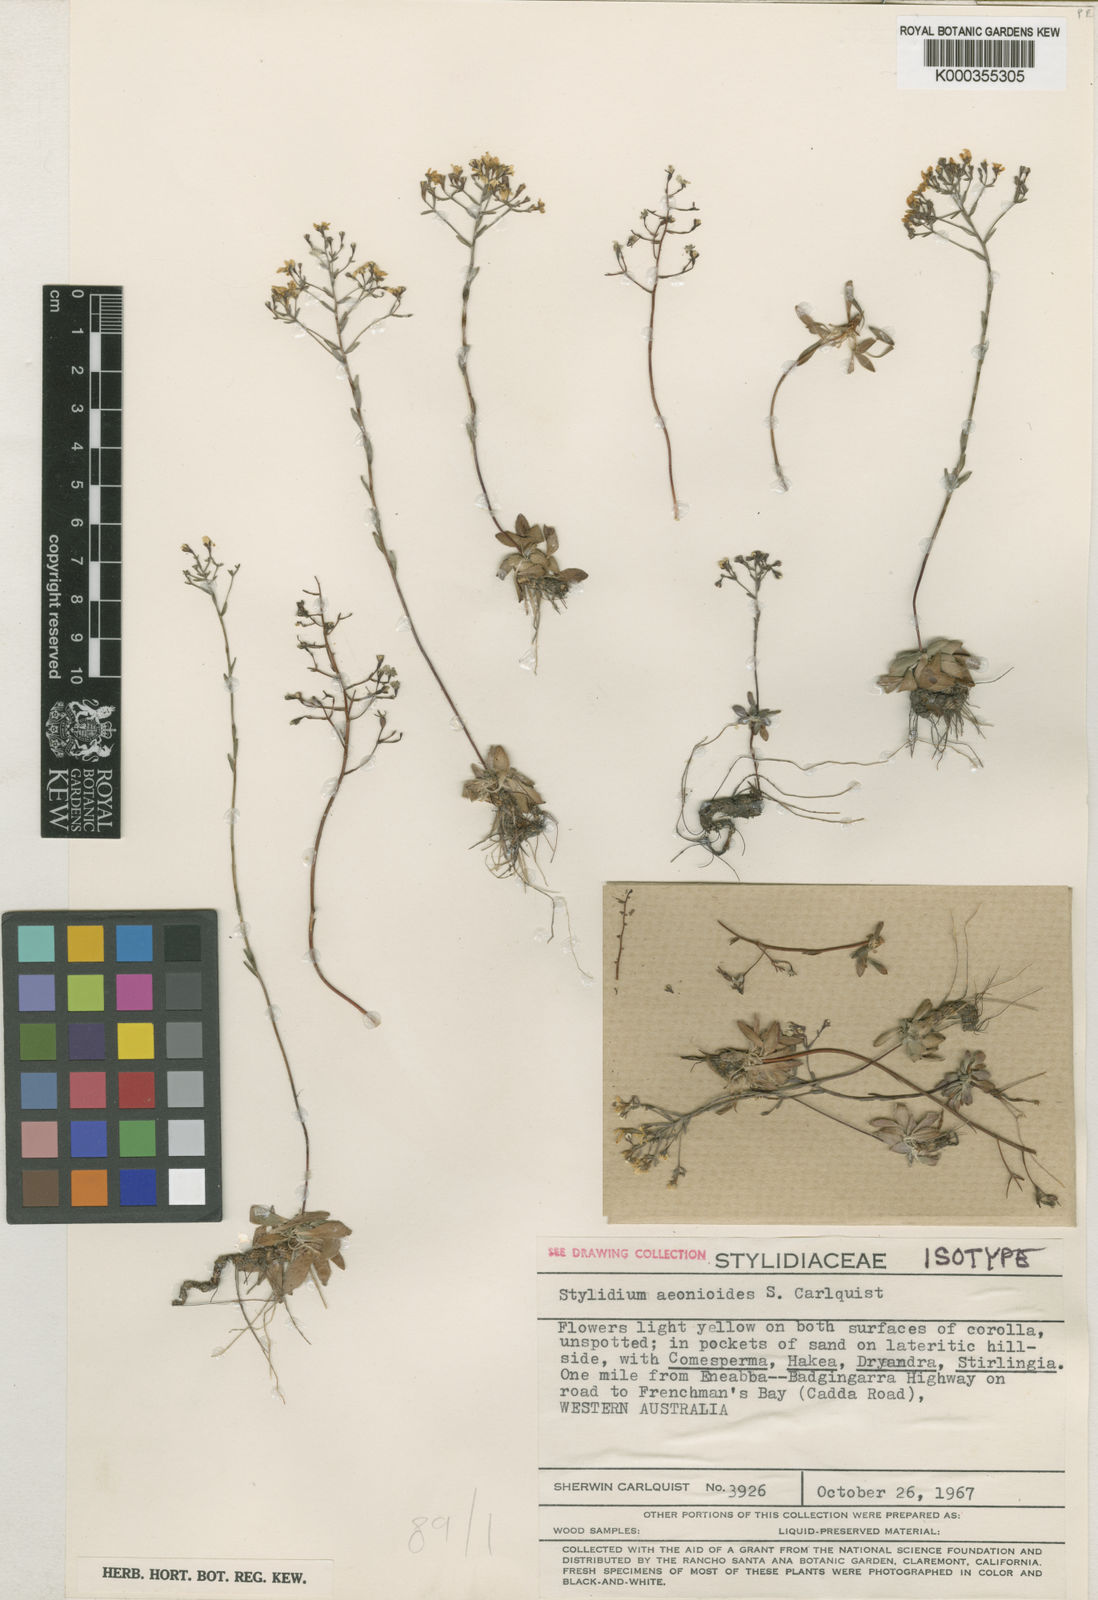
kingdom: Plantae
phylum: Tracheophyta
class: Magnoliopsida
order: Asterales
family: Stylidiaceae
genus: Stylidium
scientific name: Stylidium aeonioides
